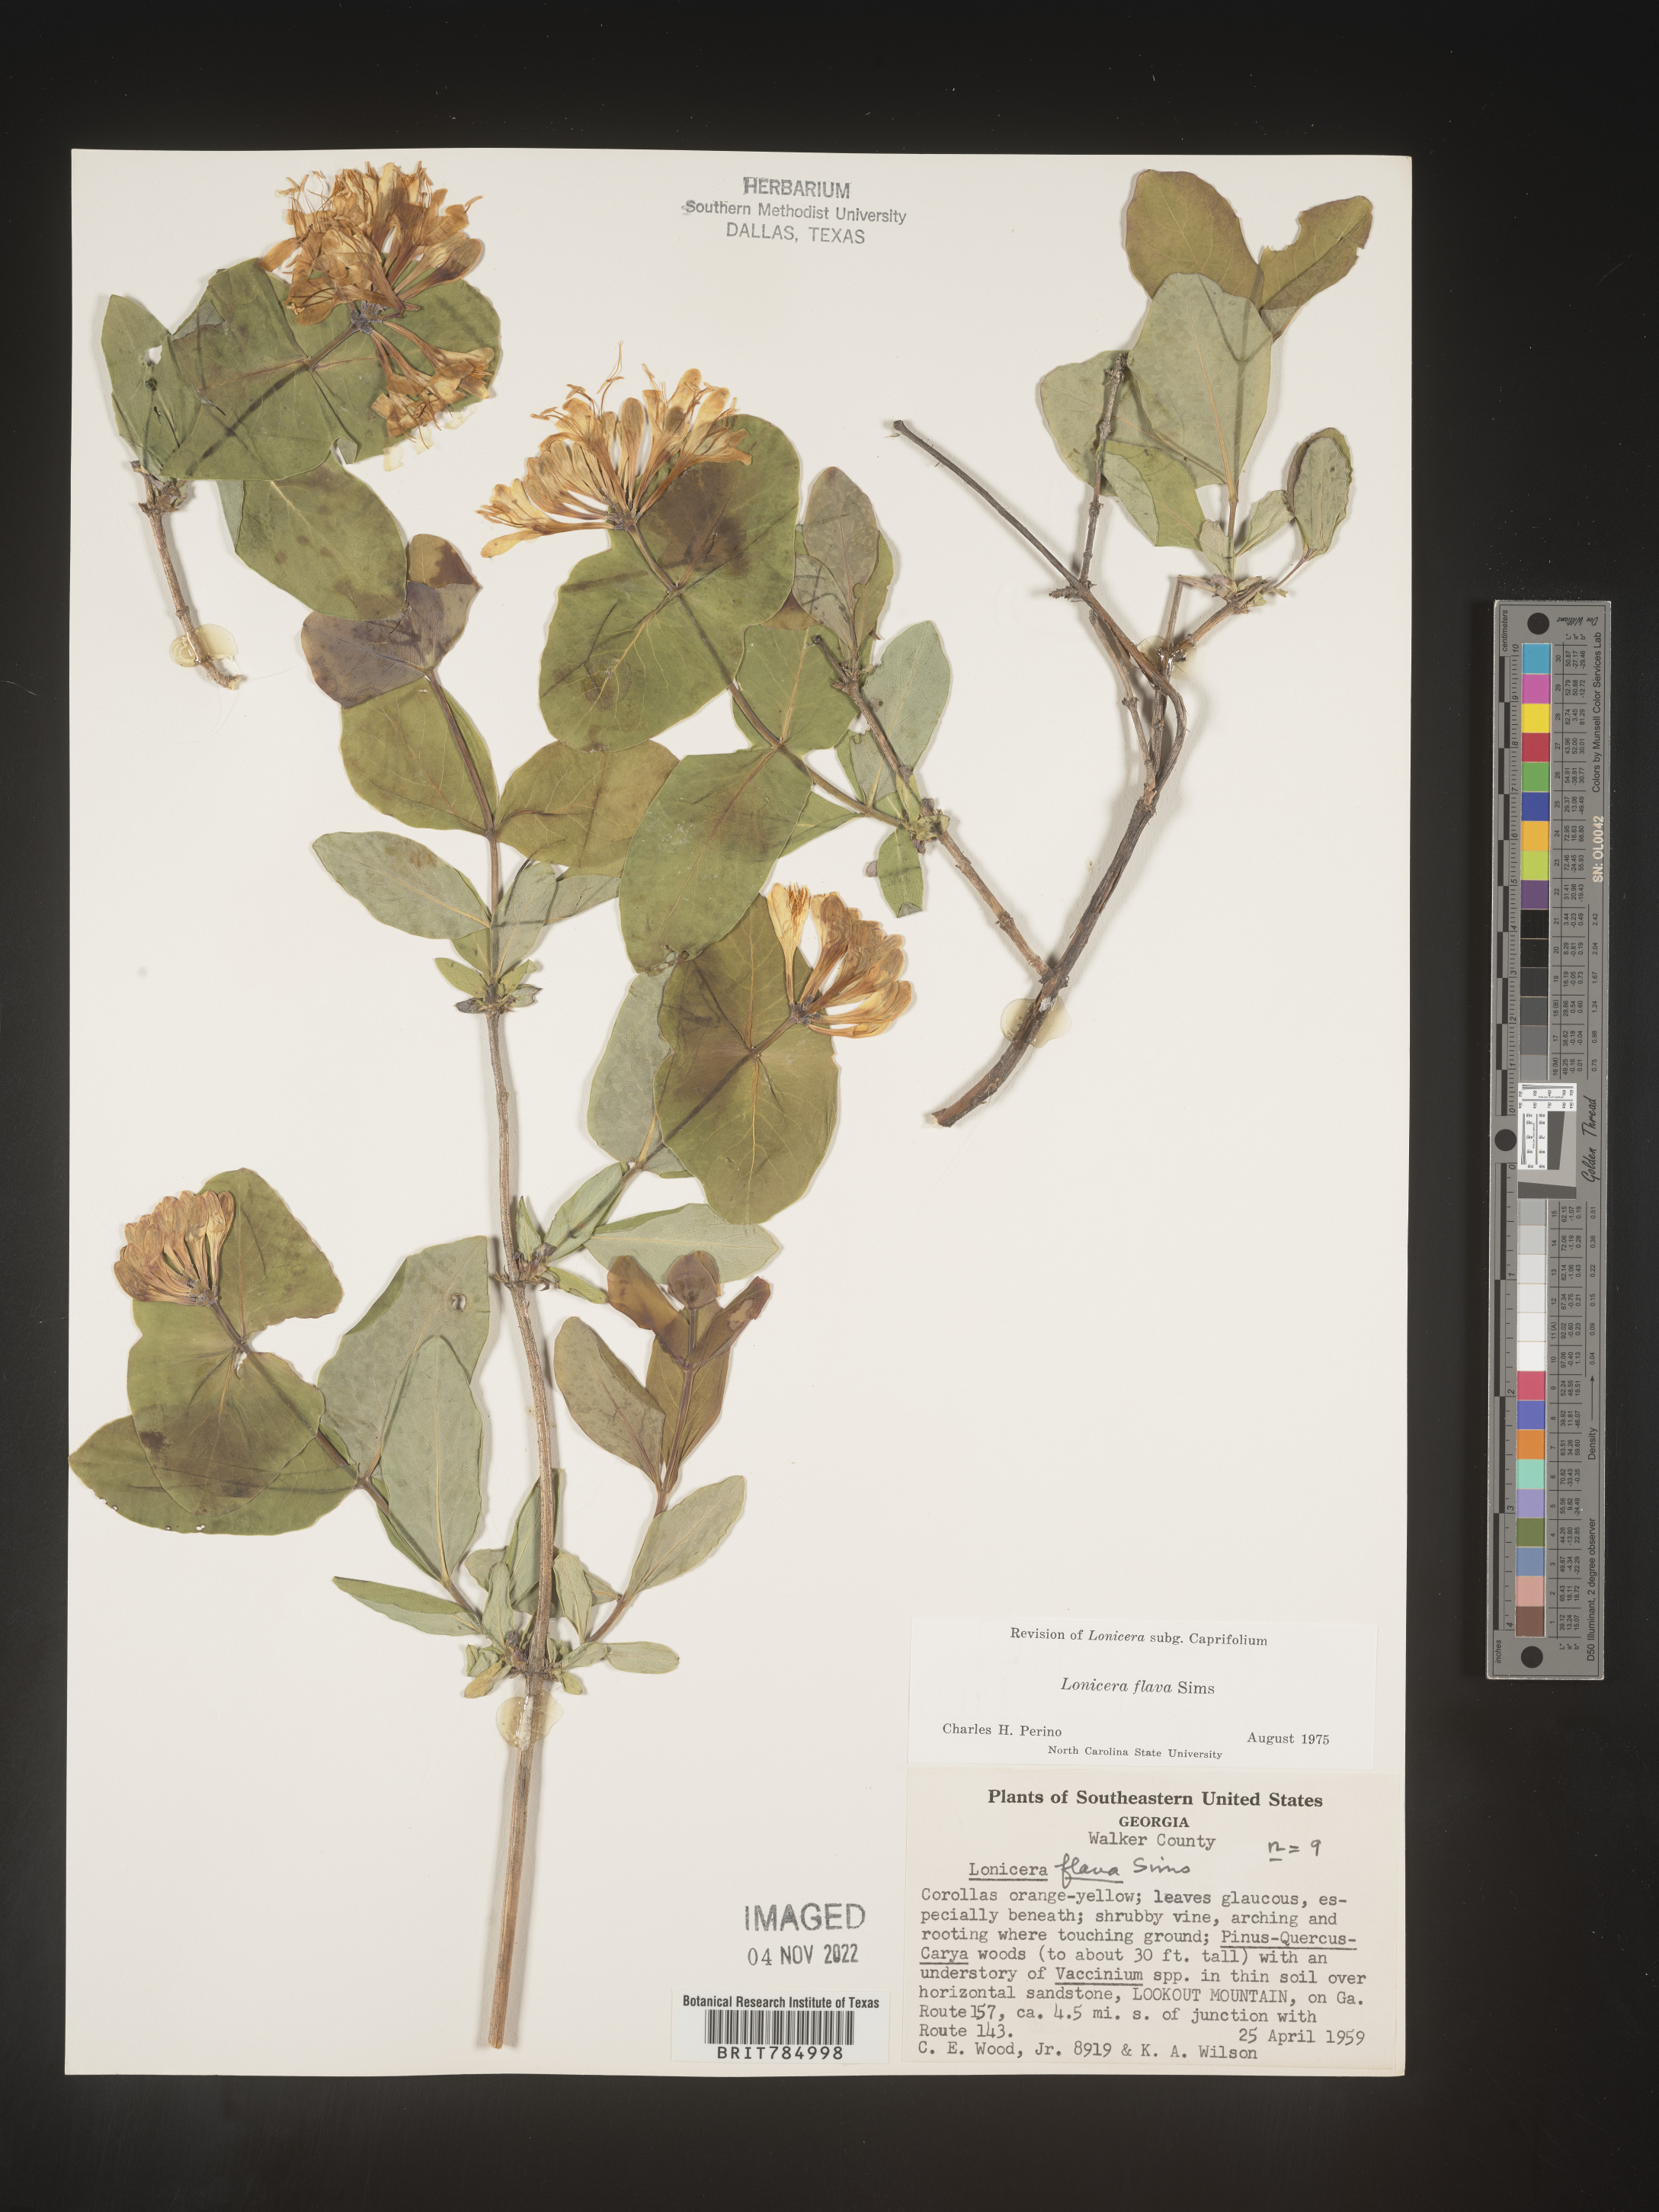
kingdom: Plantae
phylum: Tracheophyta
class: Magnoliopsida
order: Dipsacales
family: Caprifoliaceae
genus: Lonicera
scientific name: Lonicera flava
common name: Yellow honeysuckle
